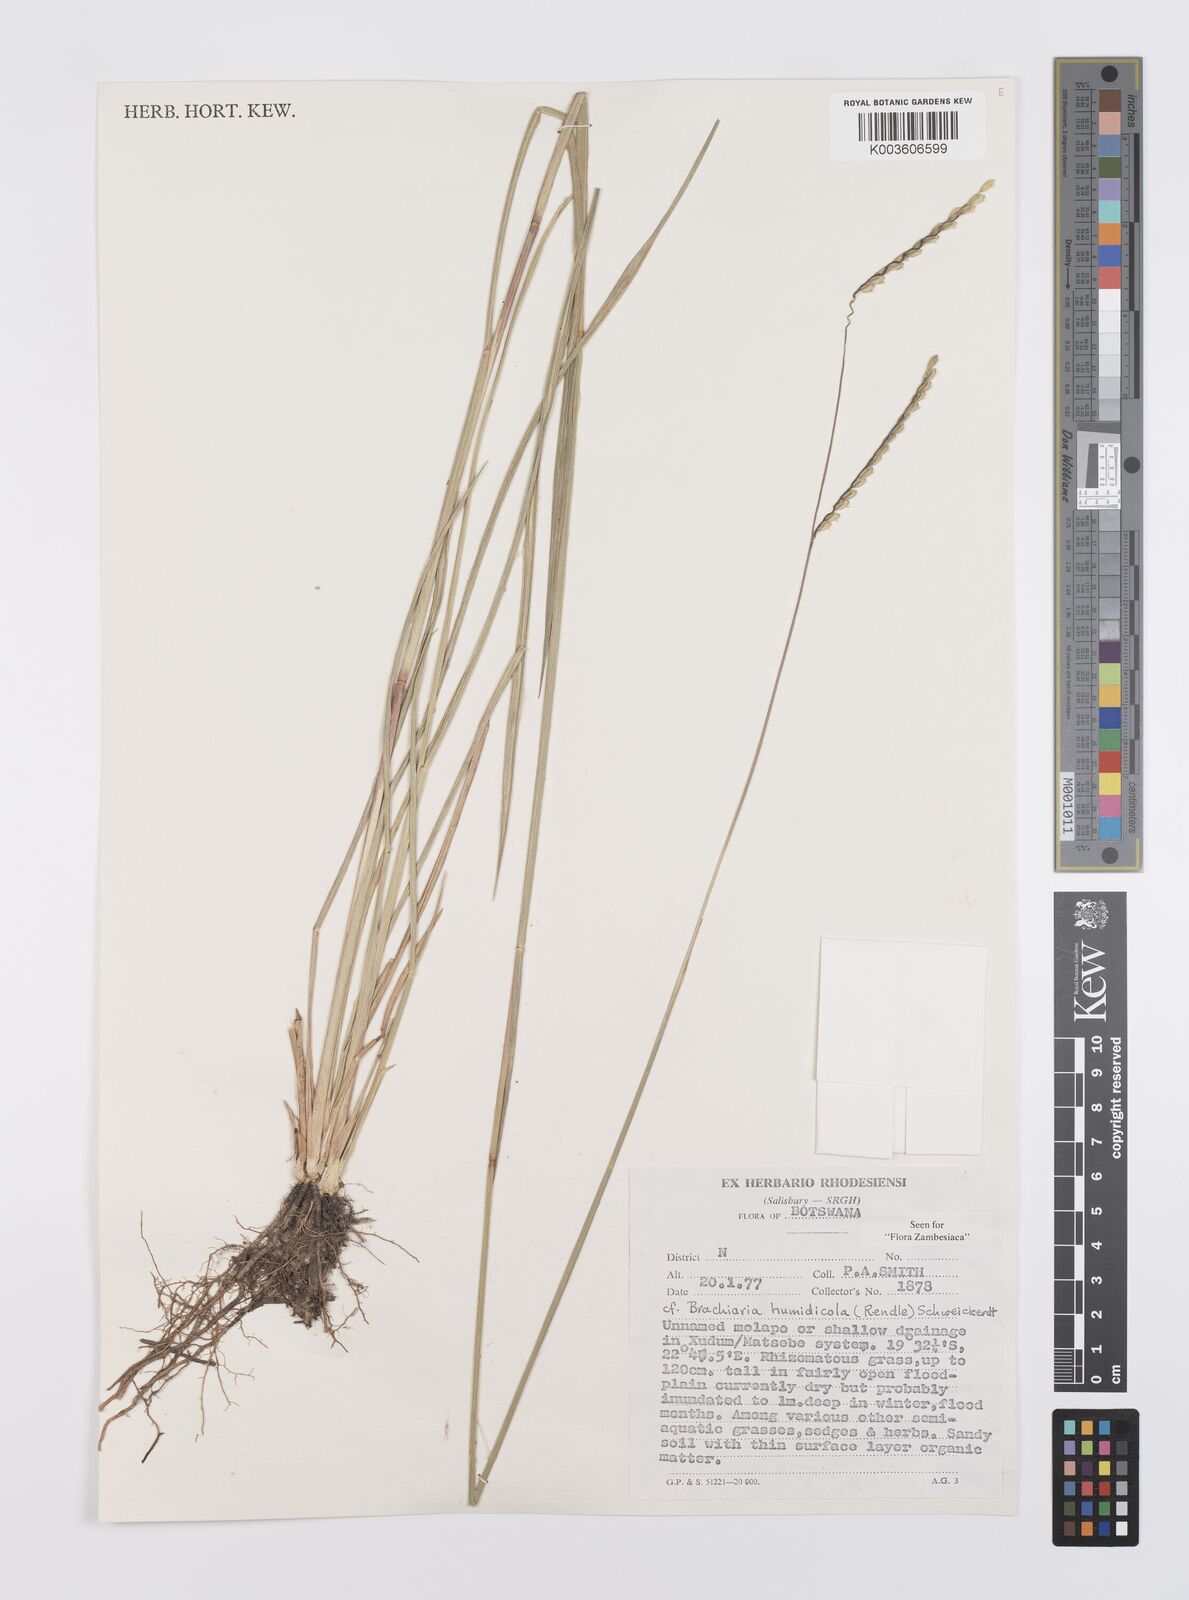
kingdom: Plantae
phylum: Tracheophyta
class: Liliopsida
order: Poales
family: Poaceae
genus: Urochloa
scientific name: Urochloa dictyoneura
